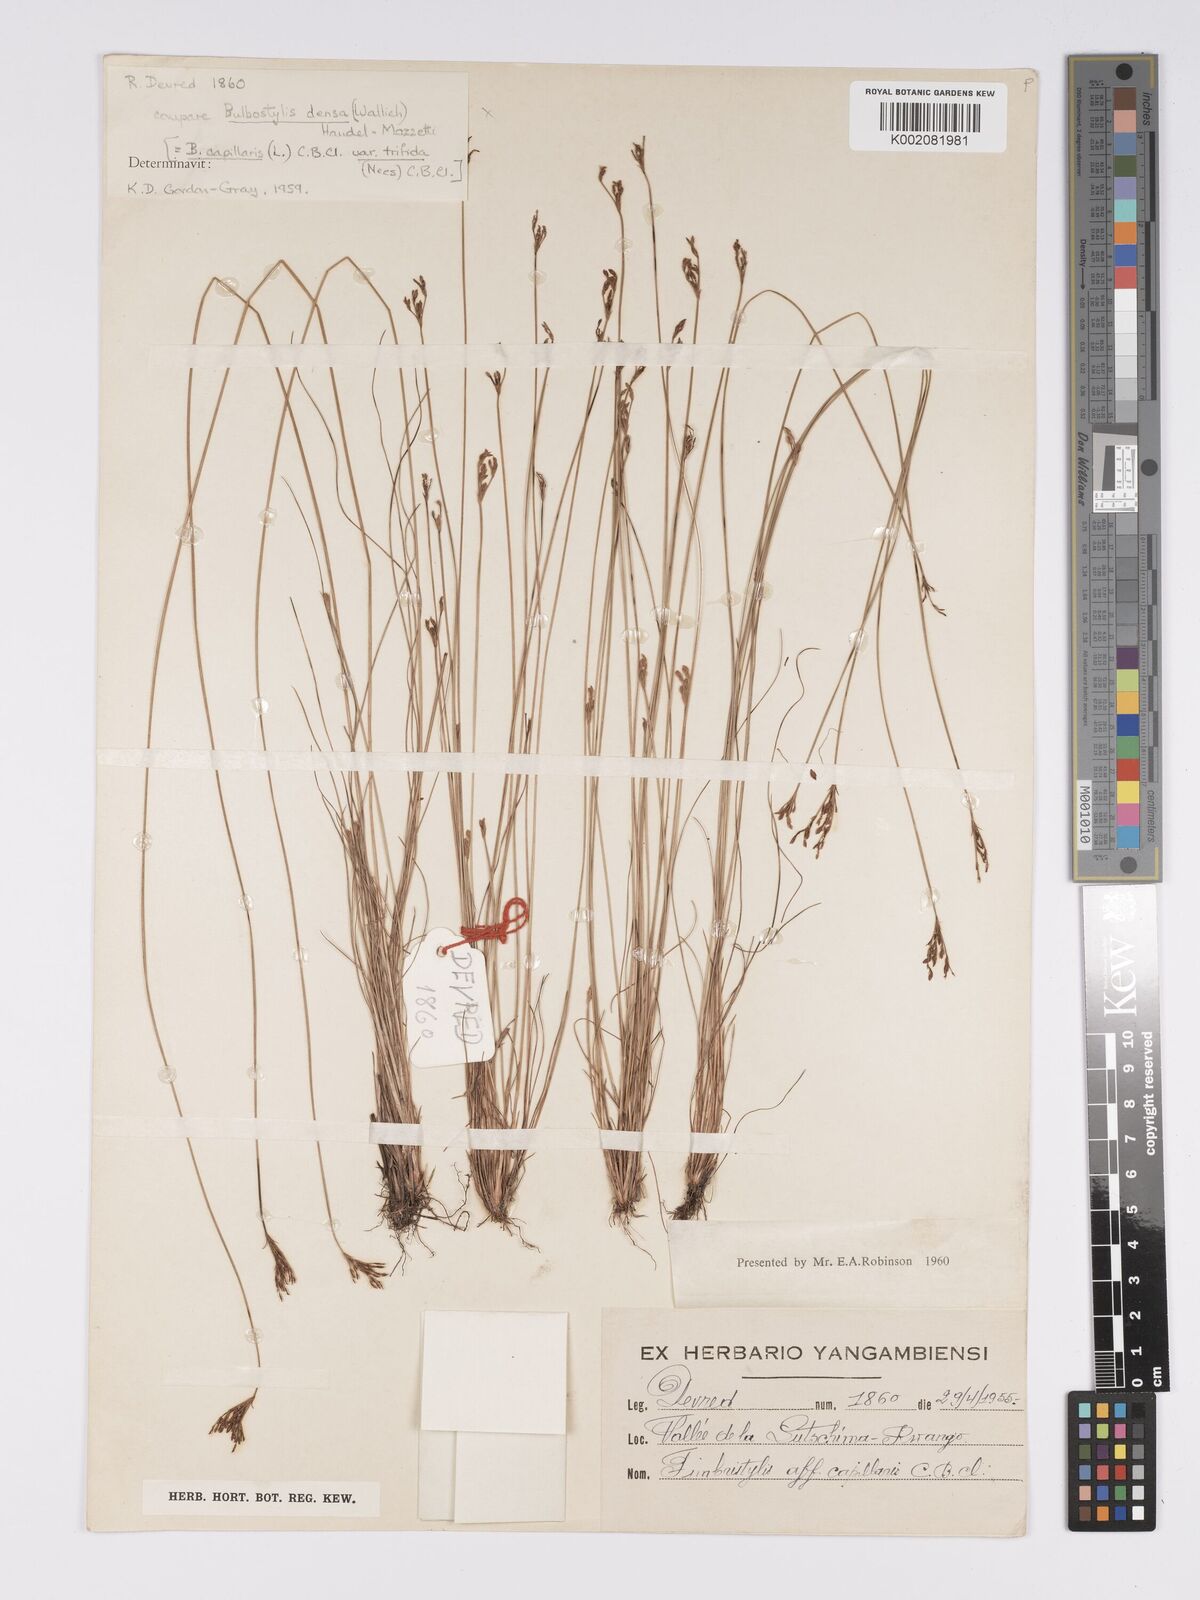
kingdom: Plantae
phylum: Tracheophyta
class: Liliopsida
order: Poales
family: Cyperaceae
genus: Bulbostylis
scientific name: Bulbostylis
